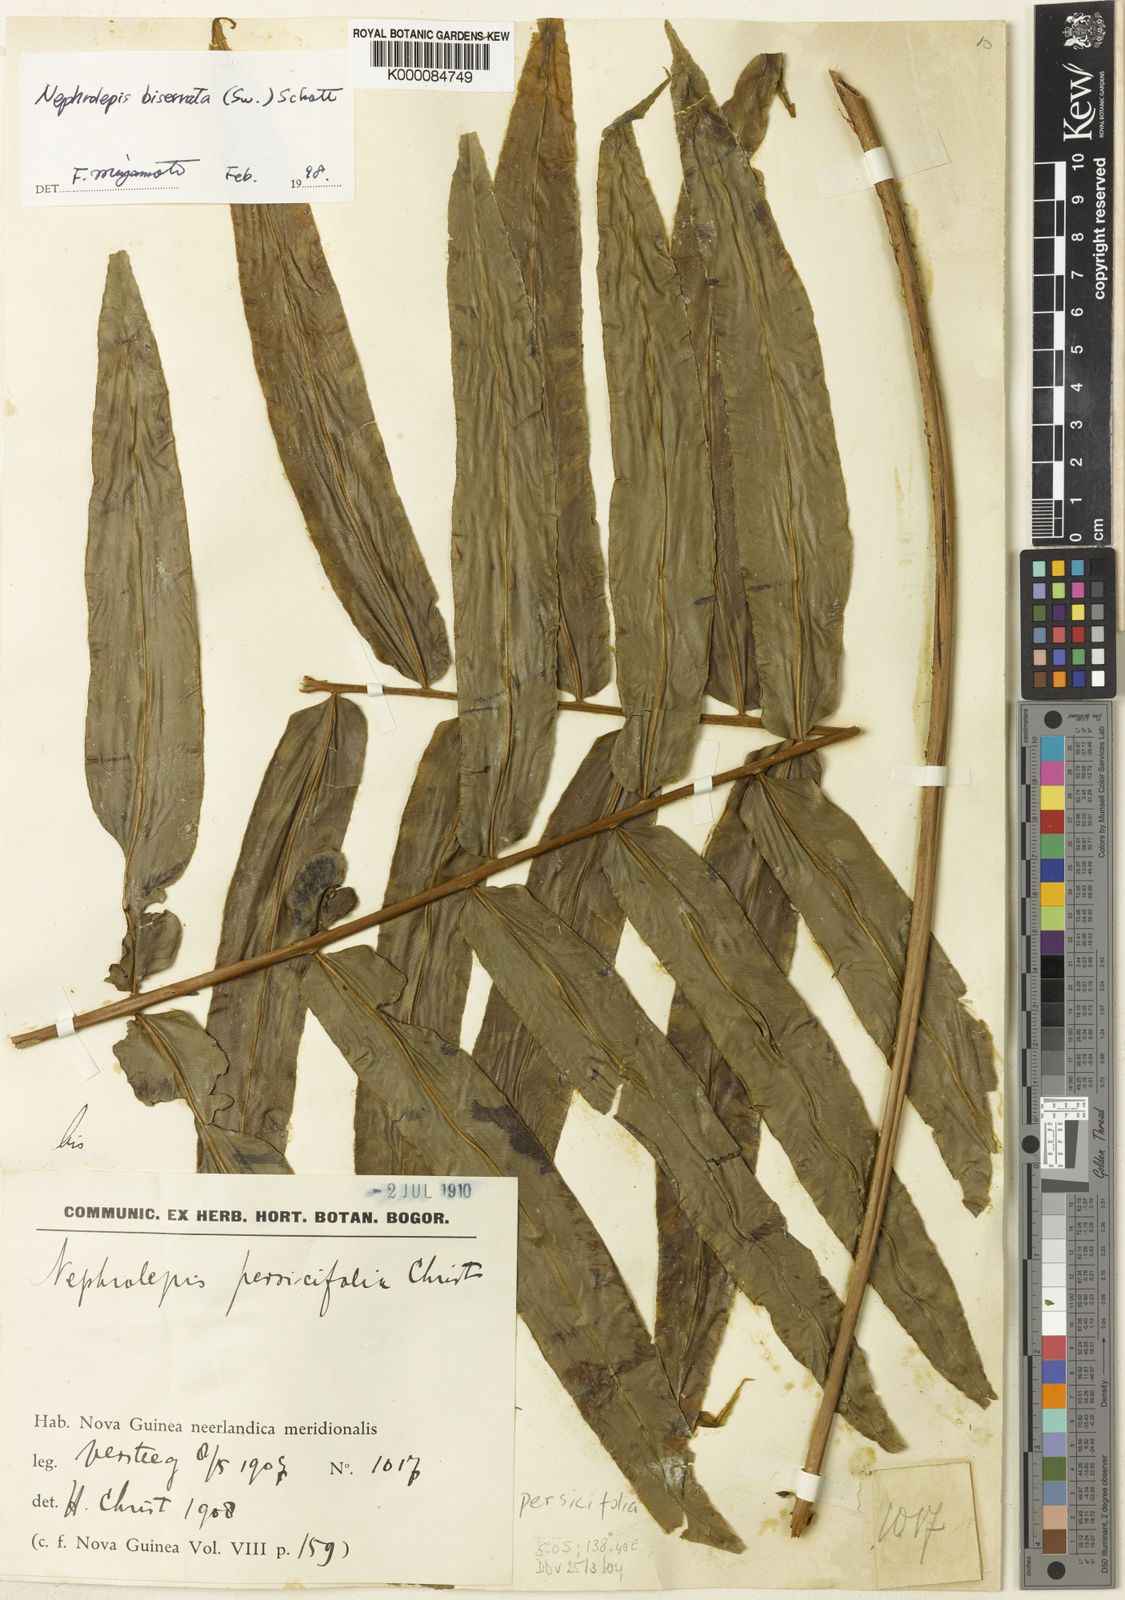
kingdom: Plantae
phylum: Tracheophyta
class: Polypodiopsida
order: Polypodiales
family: Nephrolepidaceae
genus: Nephrolepis
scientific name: Nephrolepis biserrata
